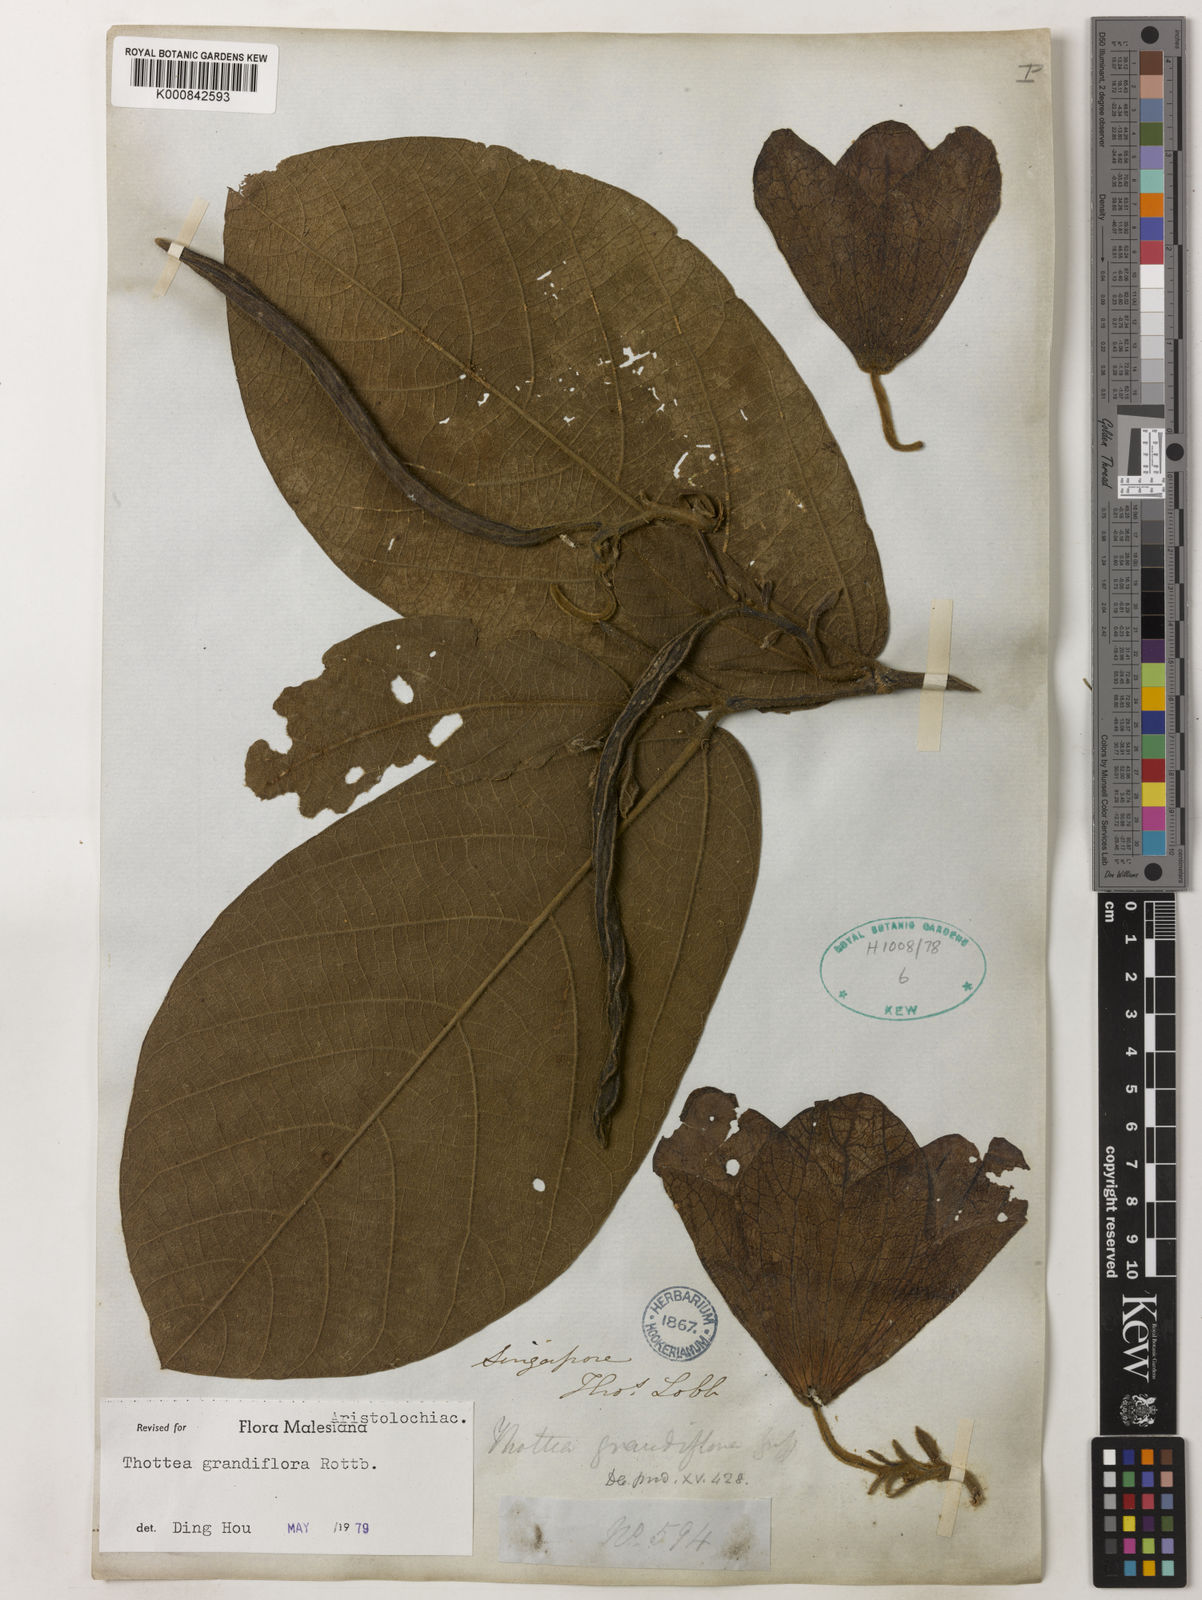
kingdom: Plantae
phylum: Tracheophyta
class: Magnoliopsida
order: Piperales
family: Aristolochiaceae
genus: Thottea
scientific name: Thottea grandiflora
